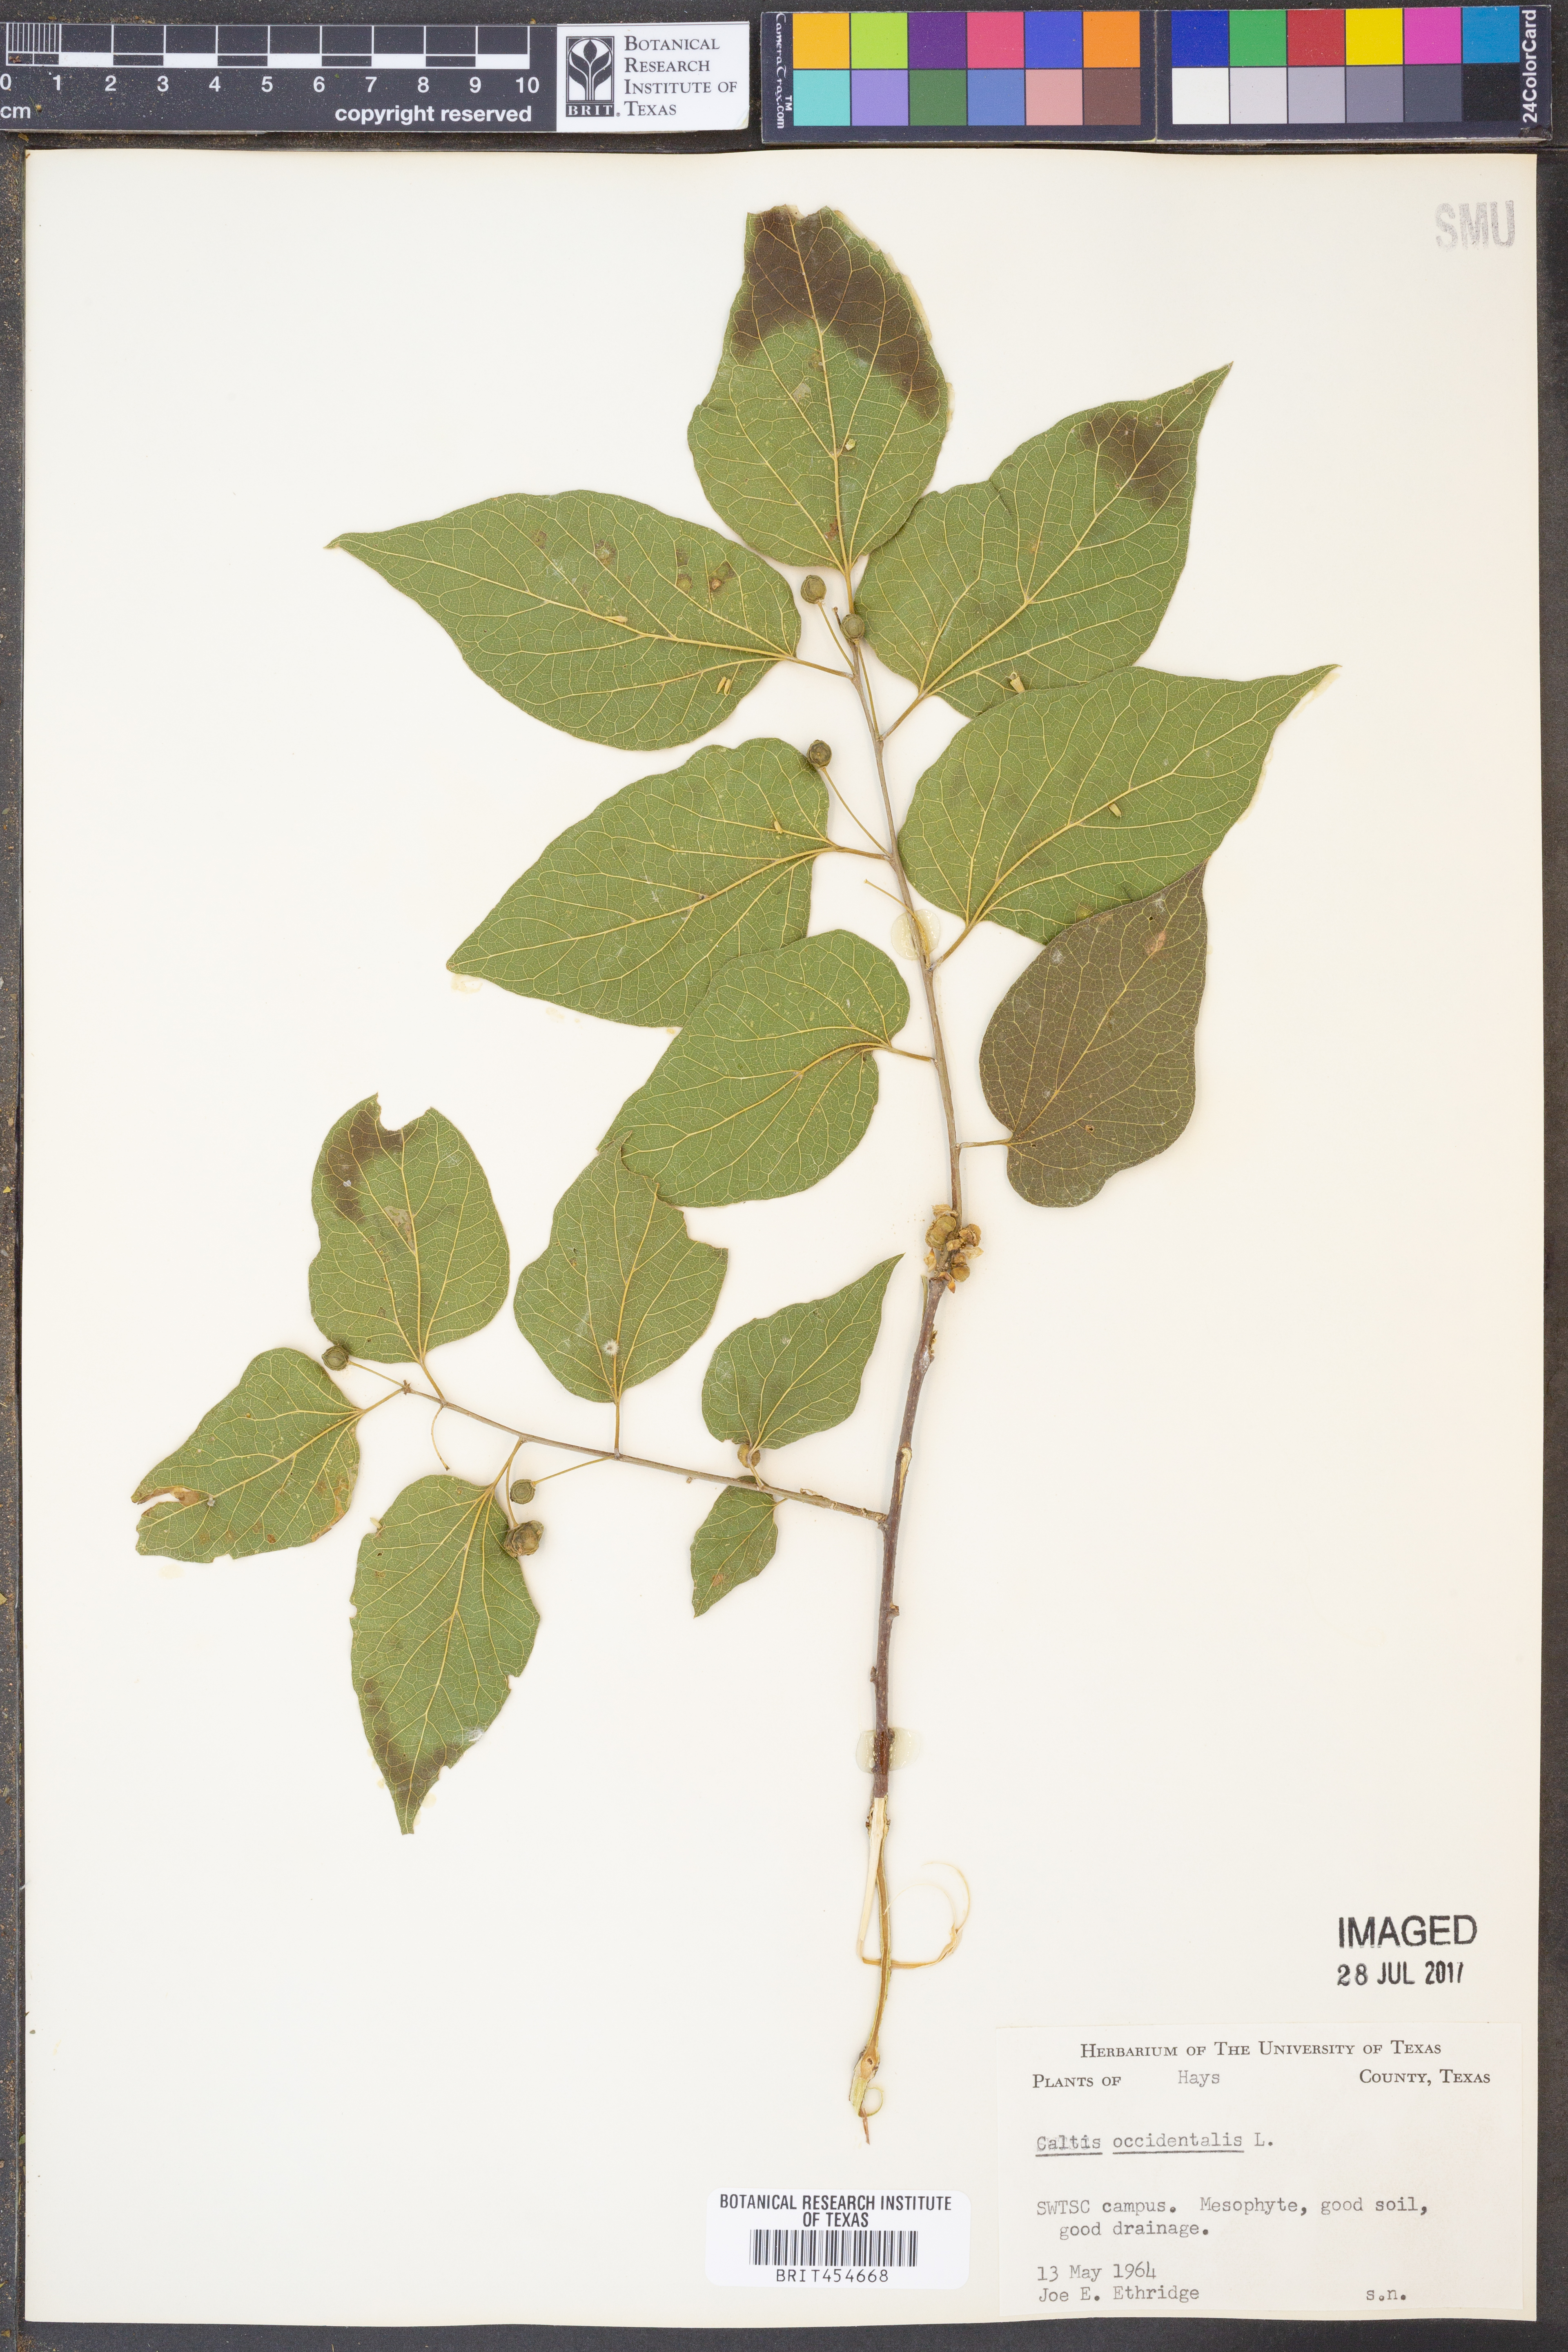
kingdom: Plantae
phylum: Tracheophyta
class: Magnoliopsida
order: Rosales
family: Cannabaceae
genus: Celtis
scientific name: Celtis occidentalis
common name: Common hackberry
